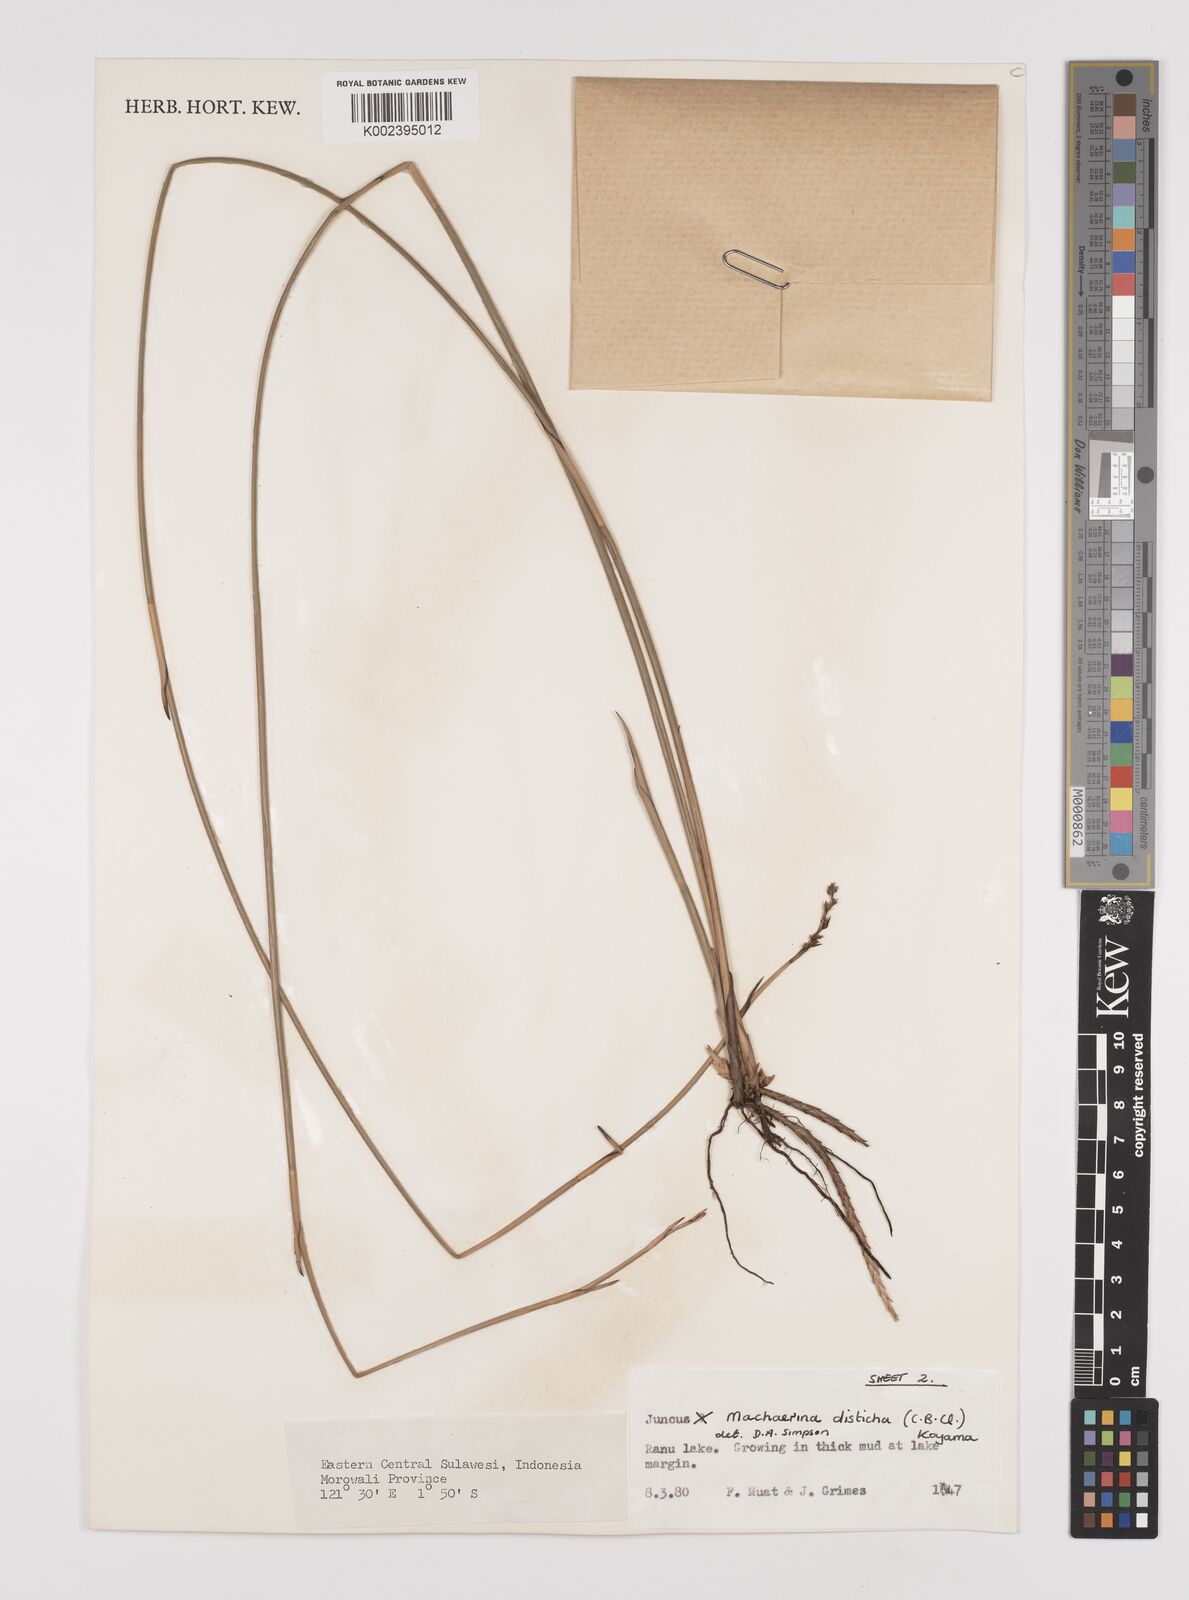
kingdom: Plantae
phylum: Tracheophyta
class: Liliopsida
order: Poales
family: Cyperaceae
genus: Machaerina
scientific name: Machaerina disticha
